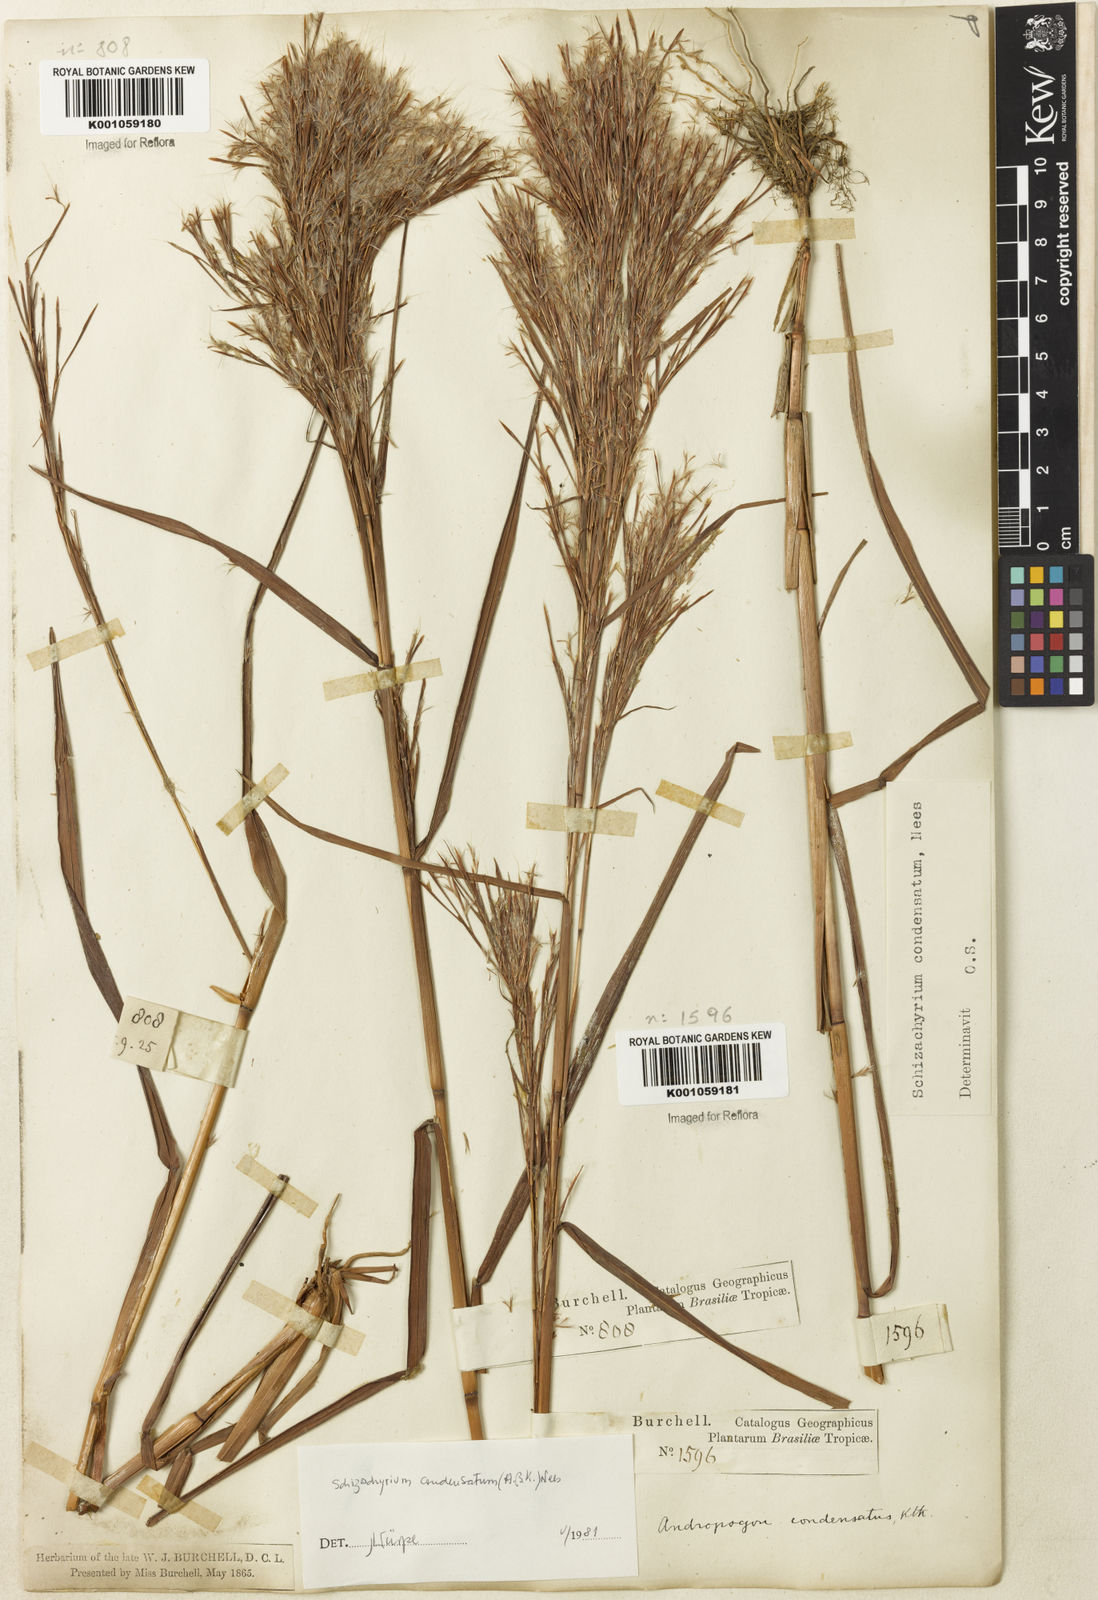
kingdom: Plantae
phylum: Tracheophyta
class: Liliopsida
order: Poales
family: Poaceae
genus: Schizachyrium
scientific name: Schizachyrium condensatum
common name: Bush beardgrass
